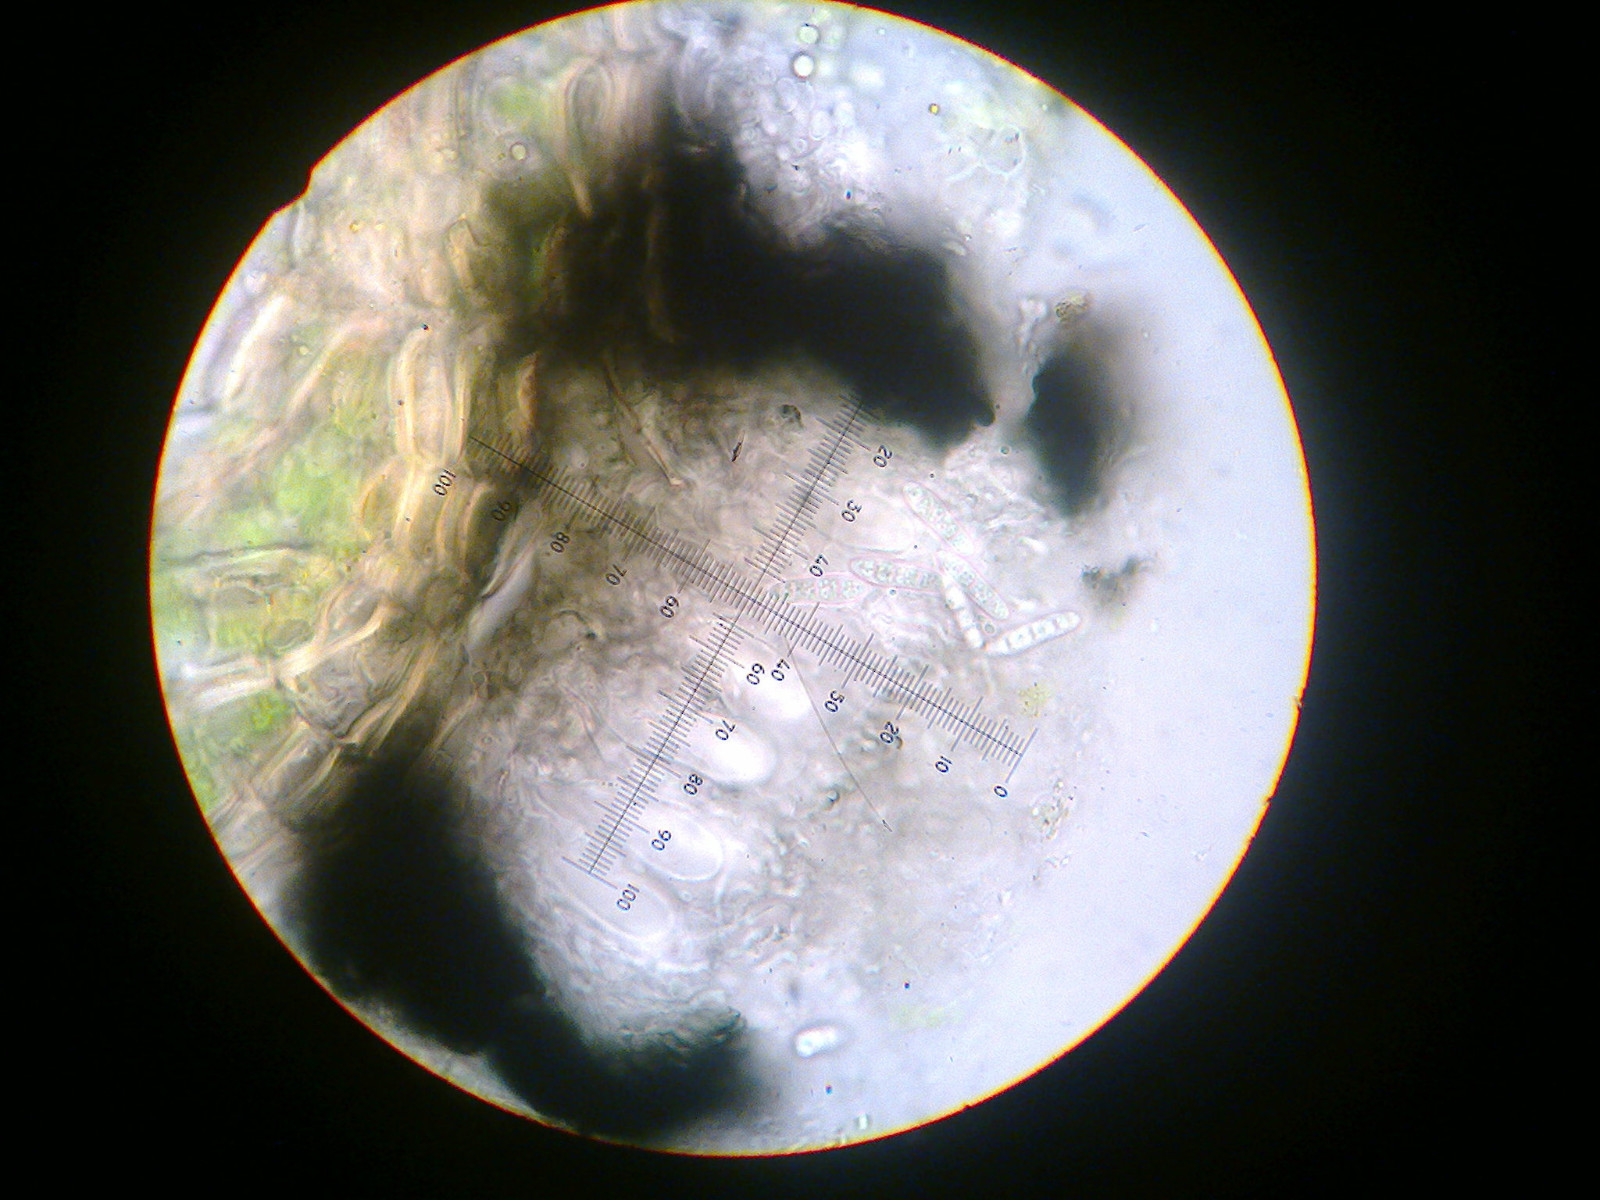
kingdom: Fungi
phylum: Ascomycota
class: Arthoniomycetes
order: Arthoniales
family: Arthoniaceae
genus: Arthonia
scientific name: Arthonia atra
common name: sort bogstavlav
